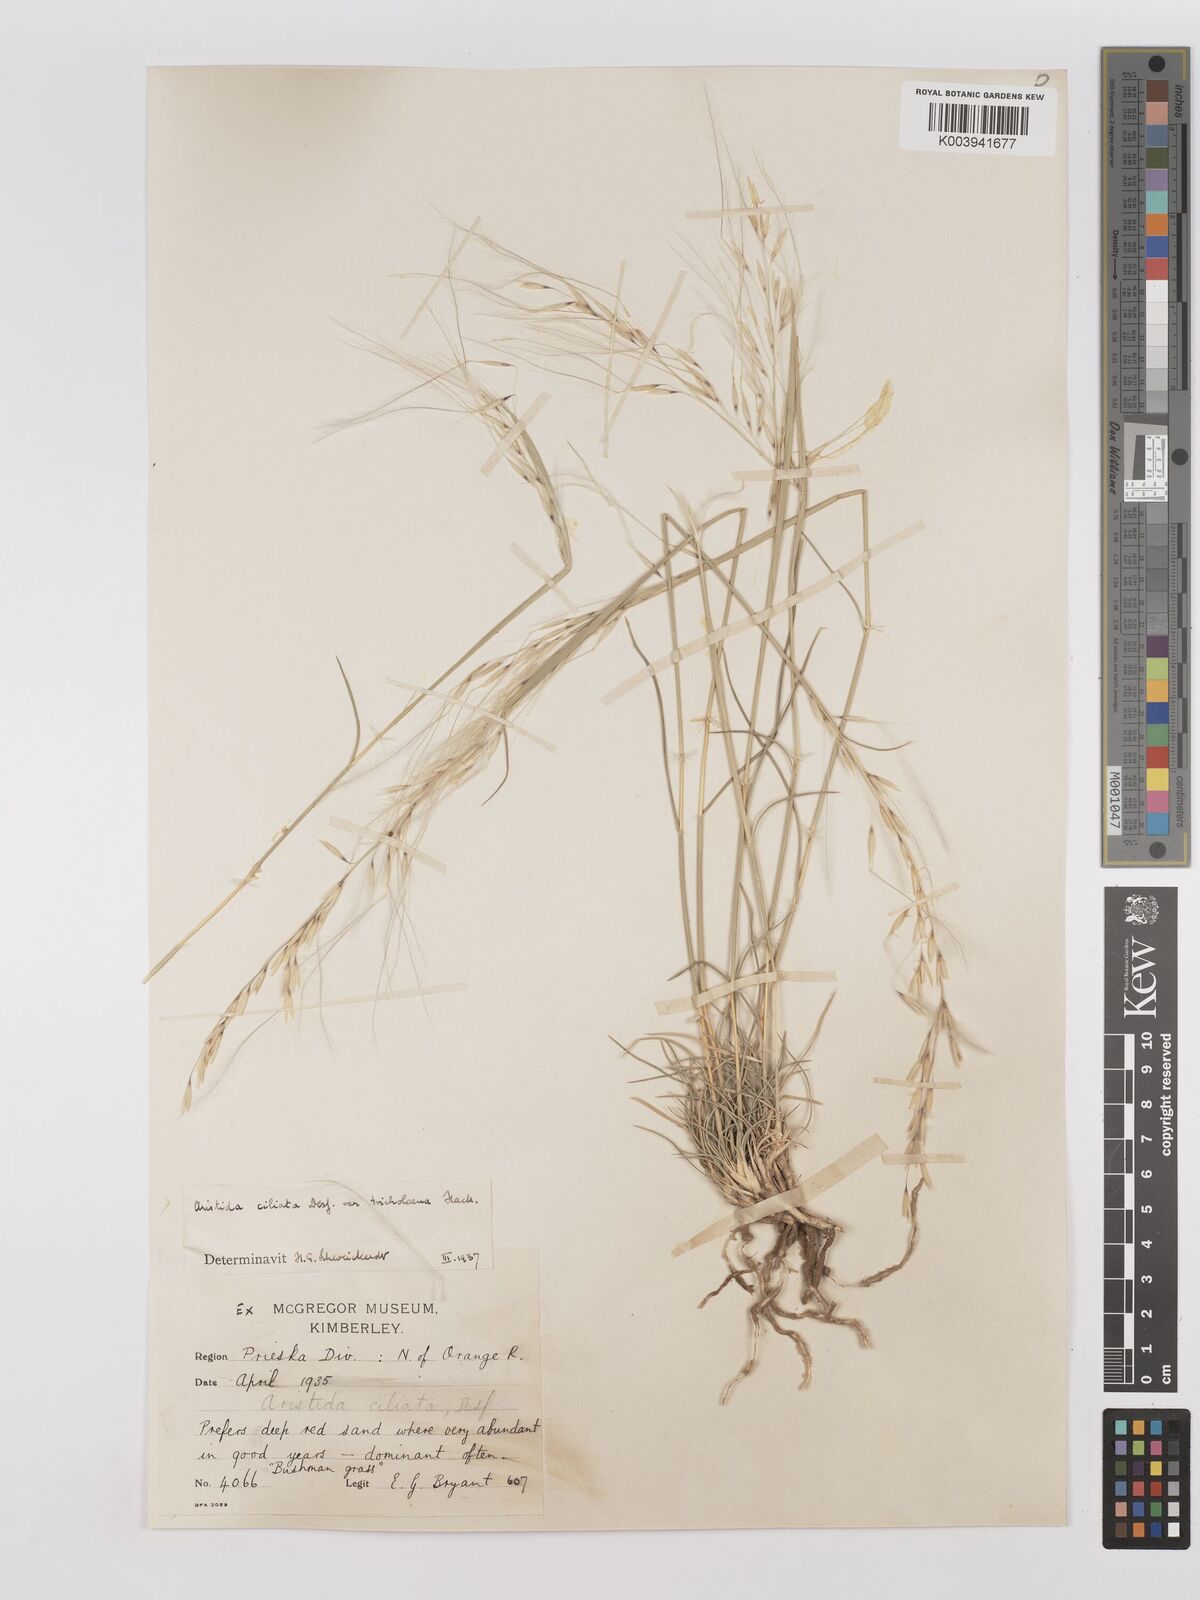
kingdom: Plantae
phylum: Tracheophyta
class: Liliopsida
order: Poales
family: Poaceae
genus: Stipagrostis
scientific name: Stipagrostis ciliata
